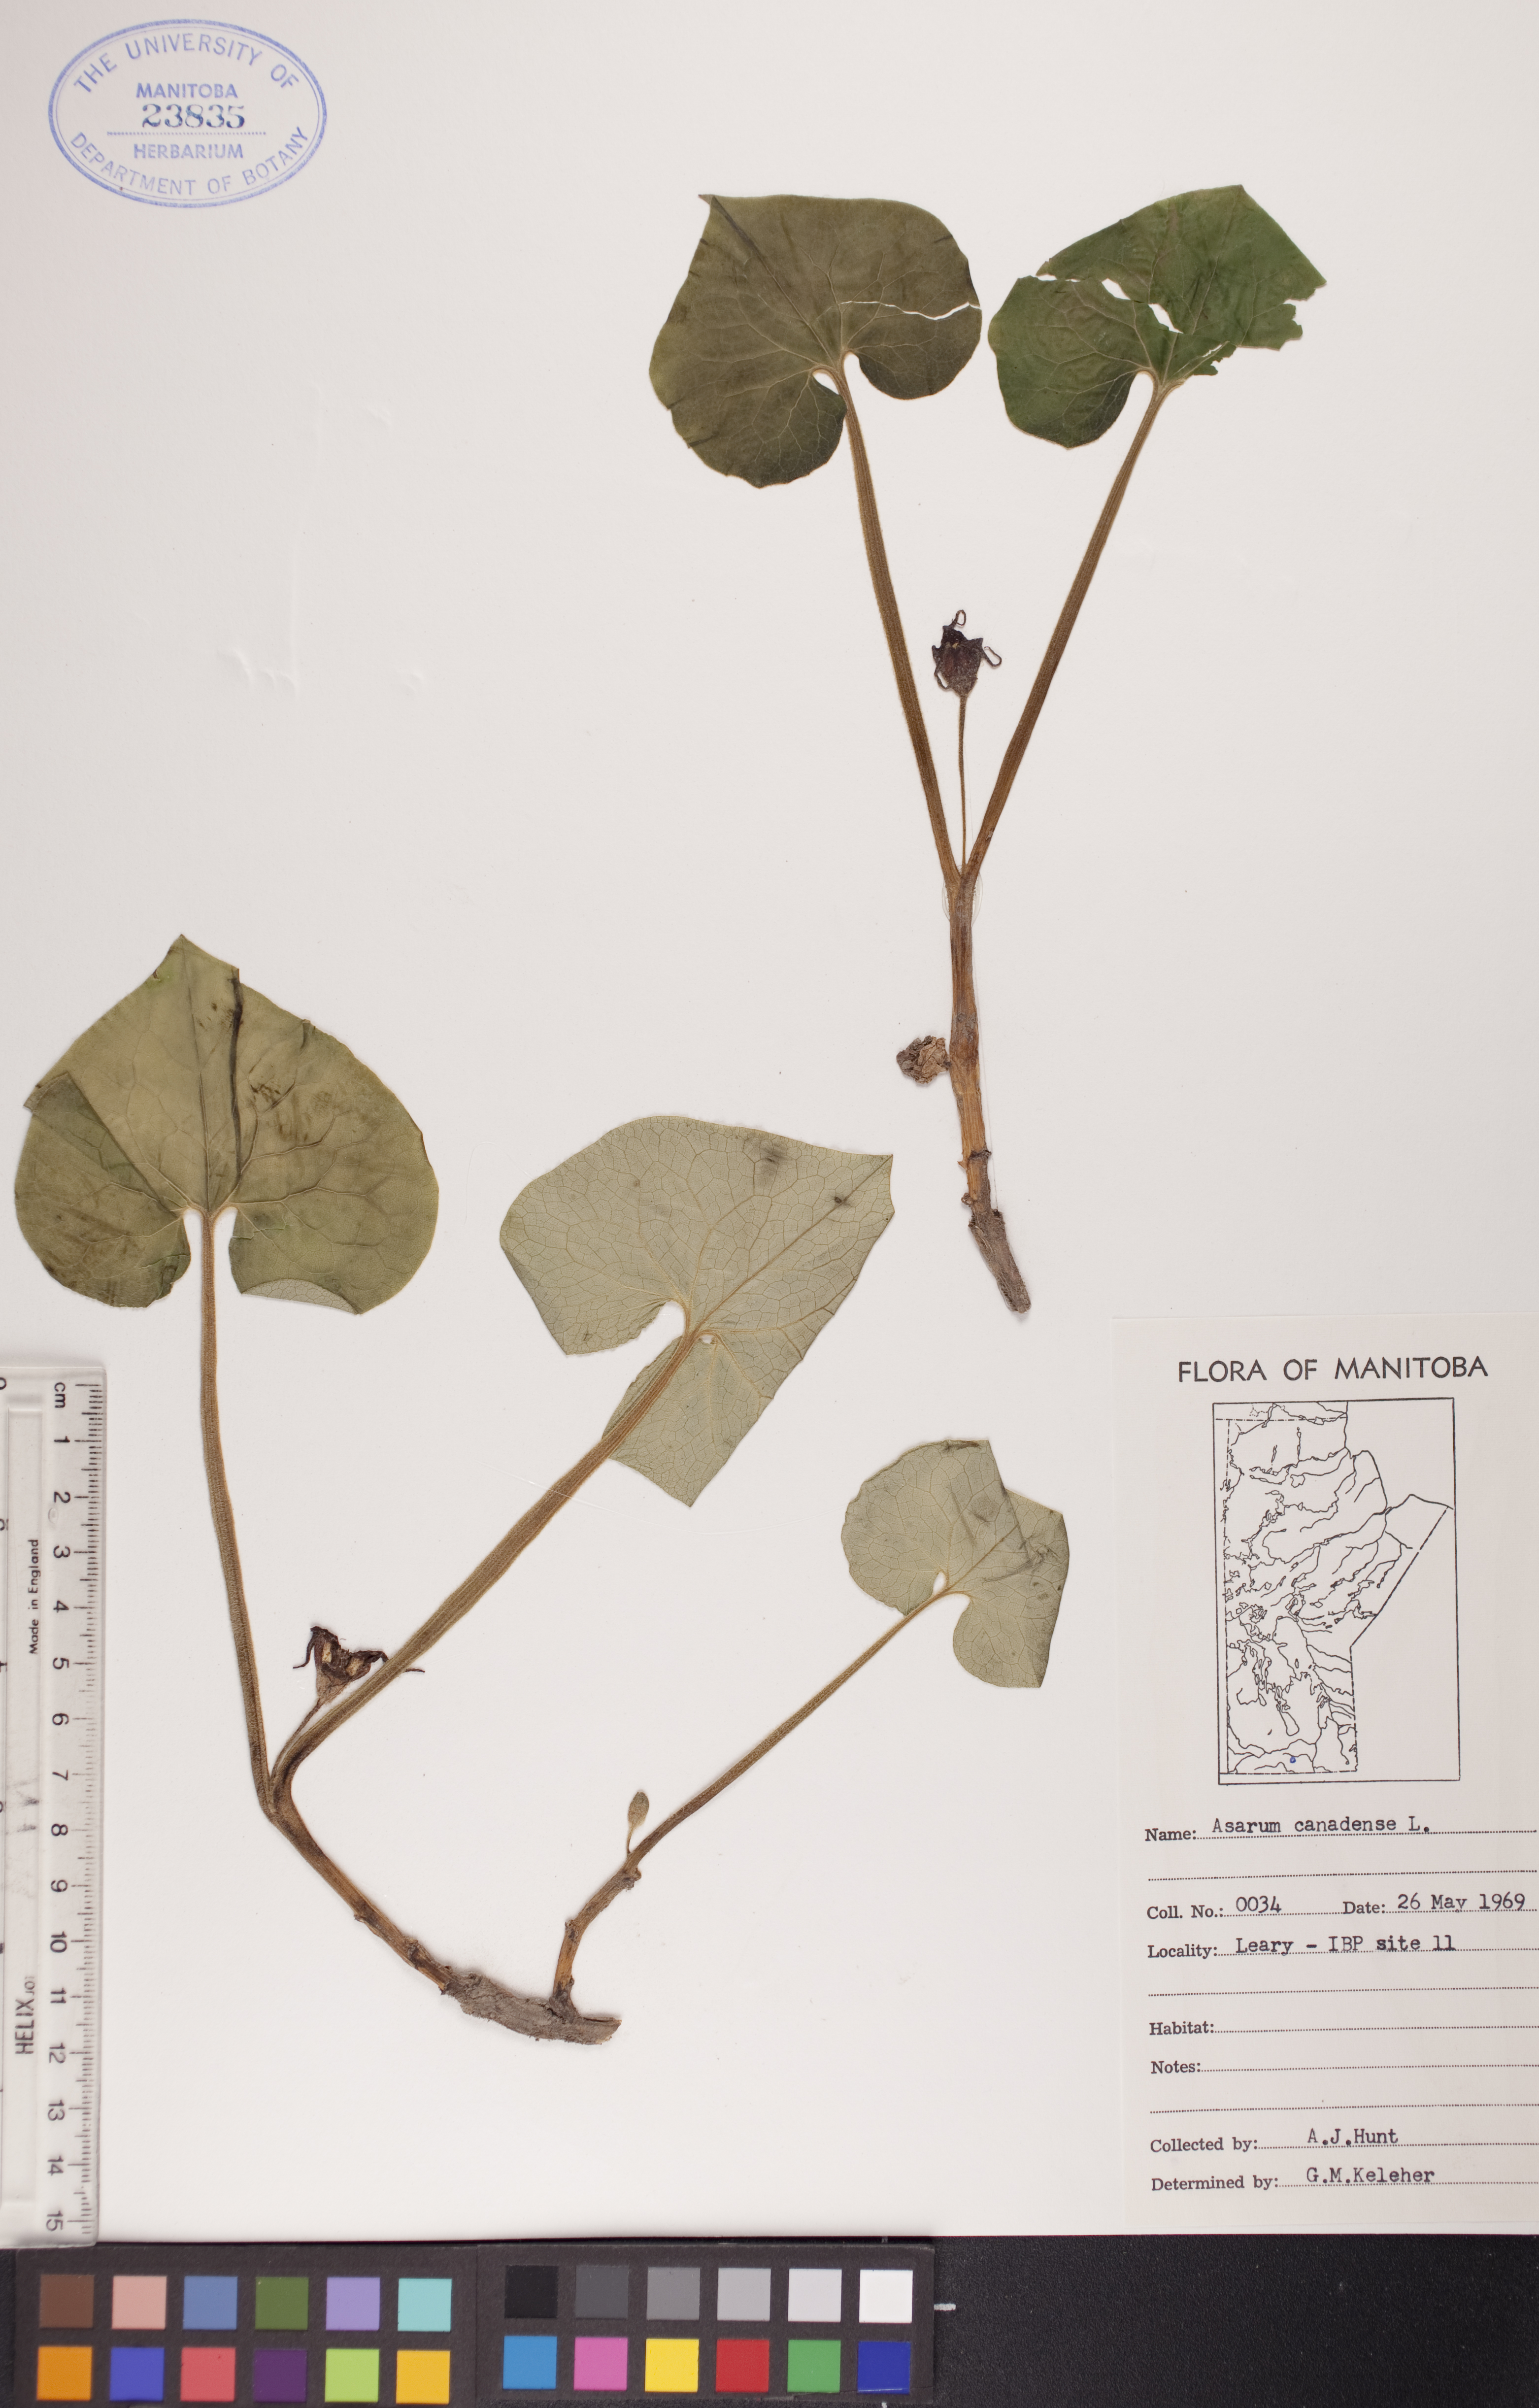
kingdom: Plantae
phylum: Tracheophyta
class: Magnoliopsida
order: Piperales
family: Aristolochiaceae
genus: Asarum
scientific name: Asarum canadense
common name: Wild ginger
